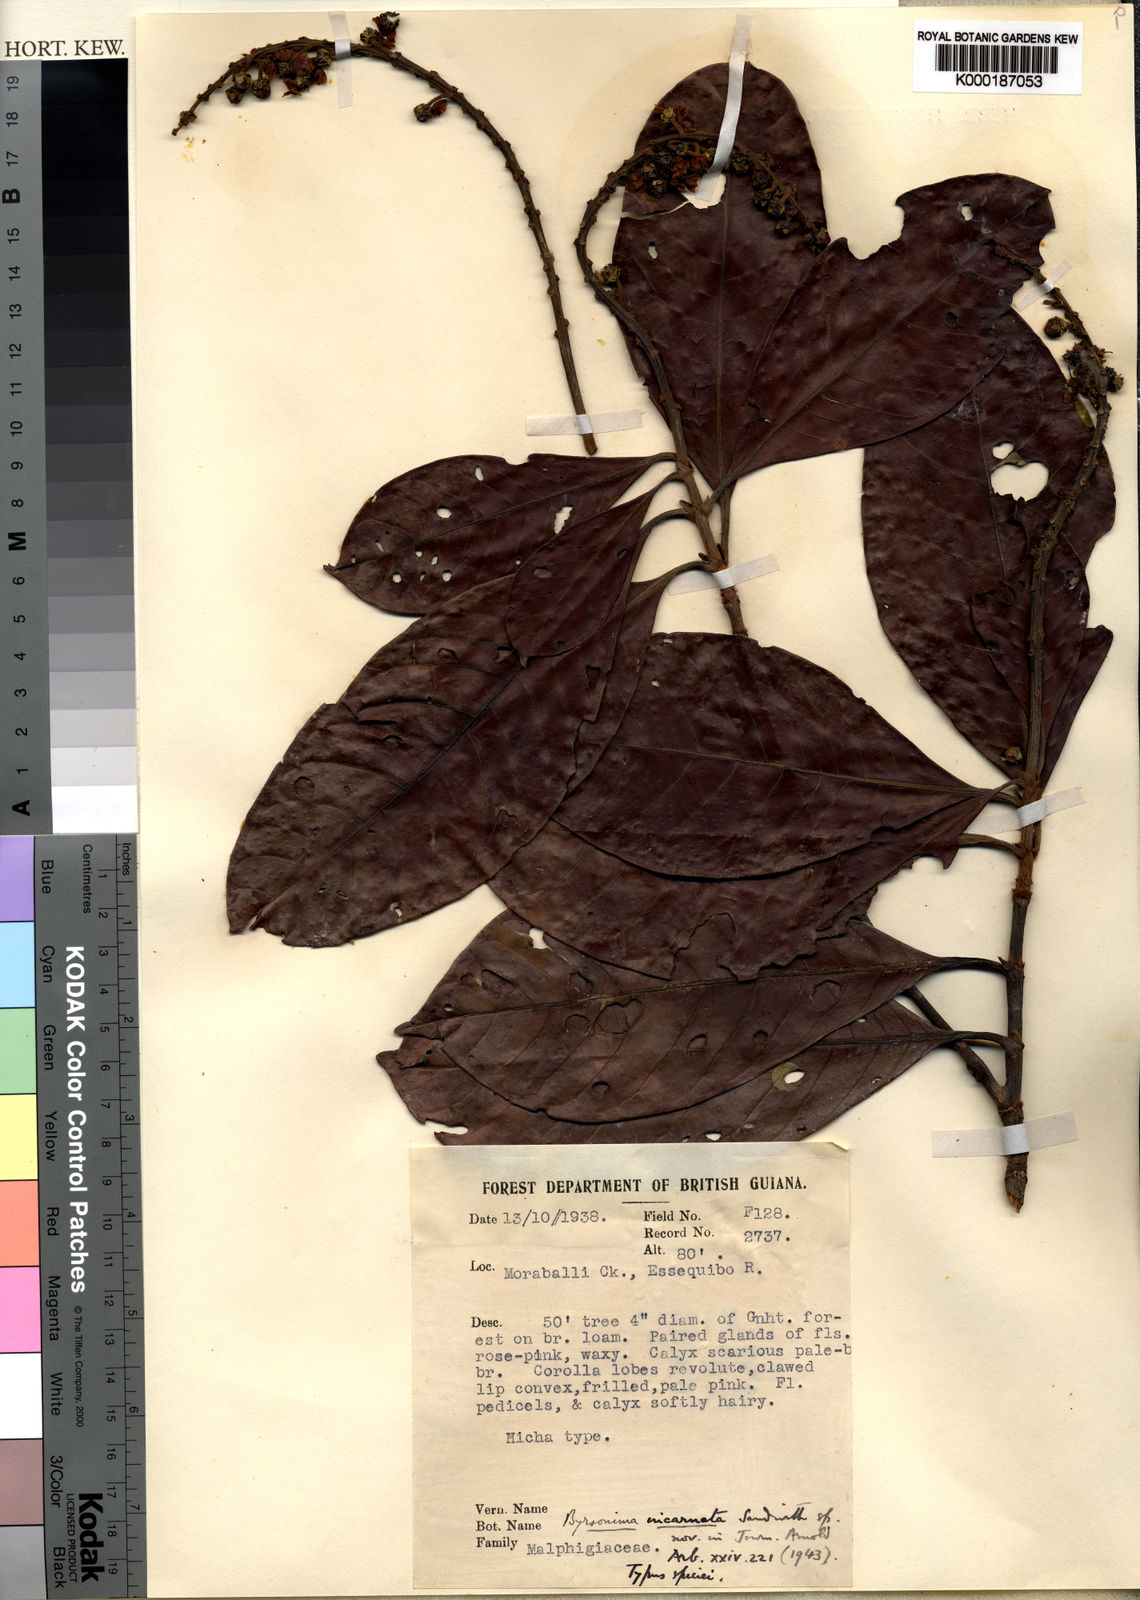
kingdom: Plantae
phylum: Tracheophyta
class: Magnoliopsida
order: Malpighiales
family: Malpighiaceae
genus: Byrsonima
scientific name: Byrsonima incarnata
